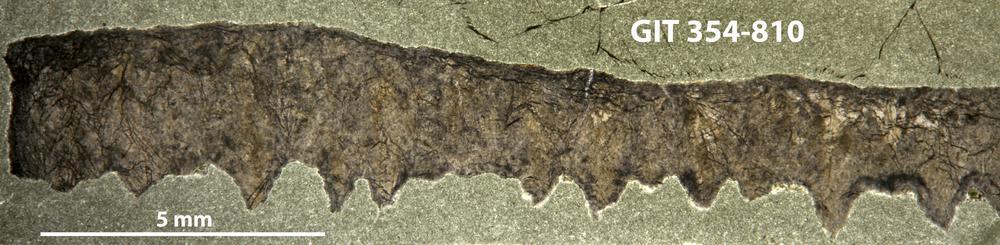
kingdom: Animalia
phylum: Porifera
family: Lophiostromatidae
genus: Lophiostroma
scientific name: Lophiostroma
